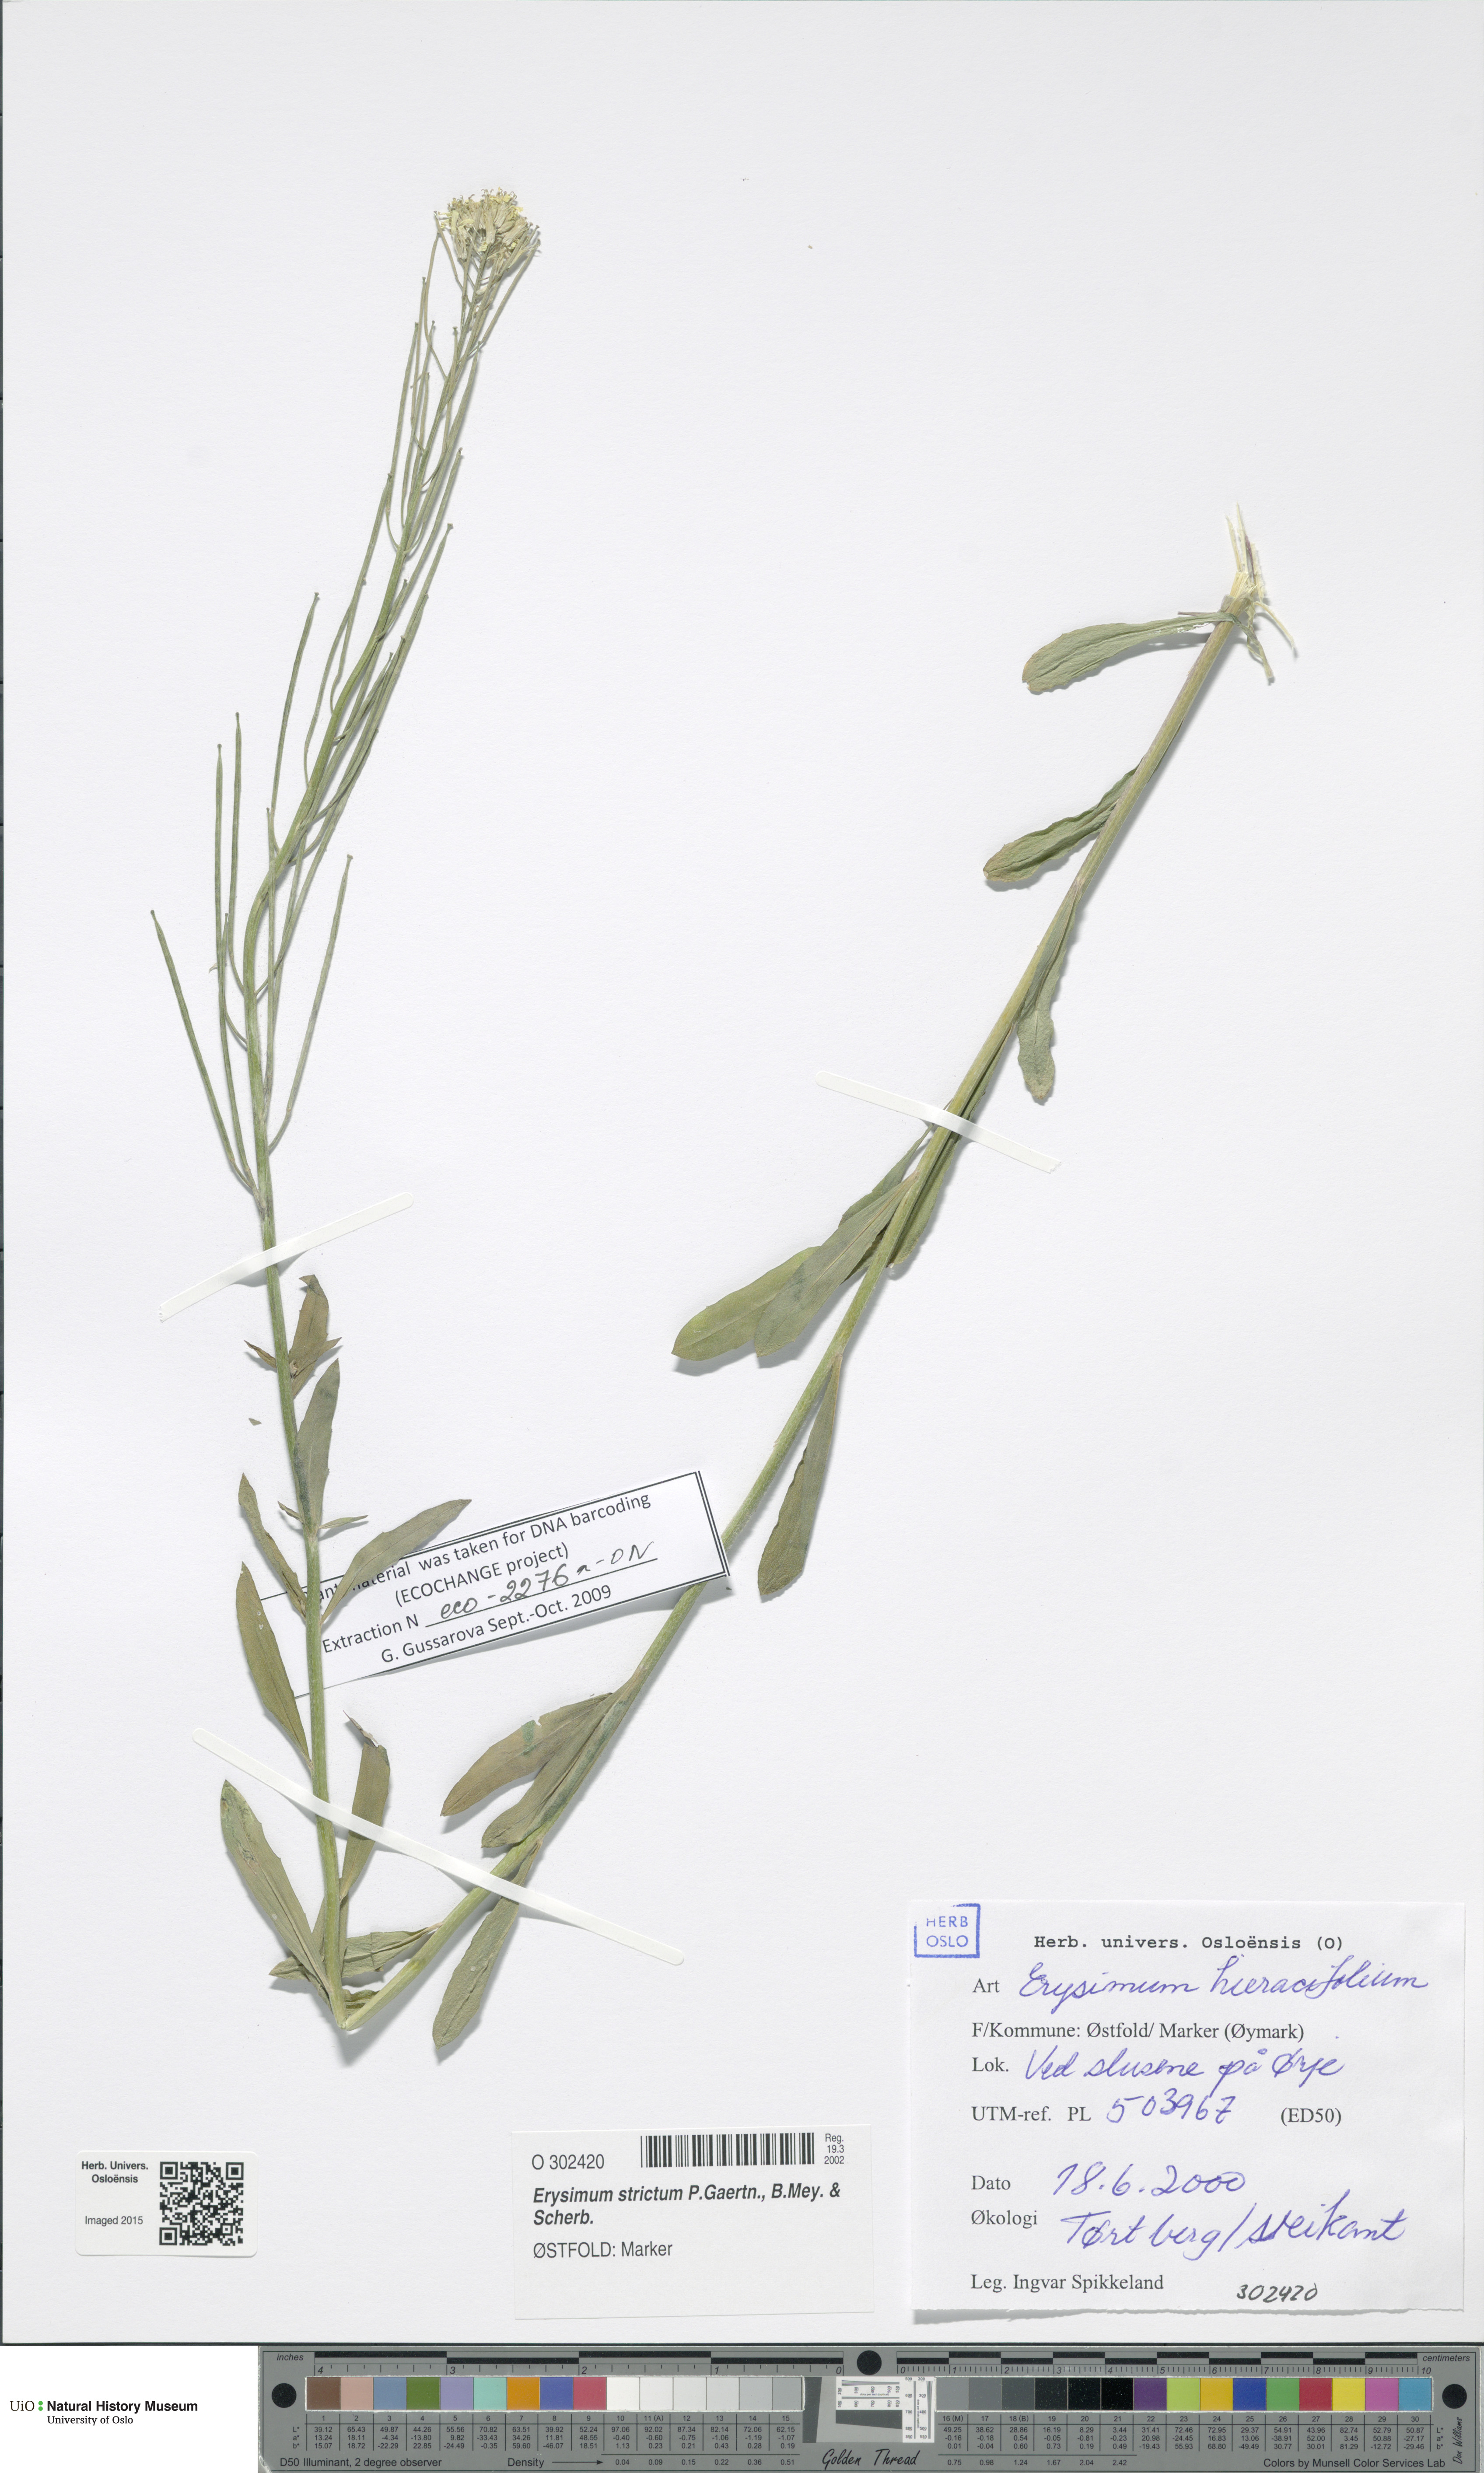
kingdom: Plantae
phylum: Tracheophyta
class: Magnoliopsida
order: Brassicales
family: Brassicaceae
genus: Erysimum
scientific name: Erysimum virgatum
